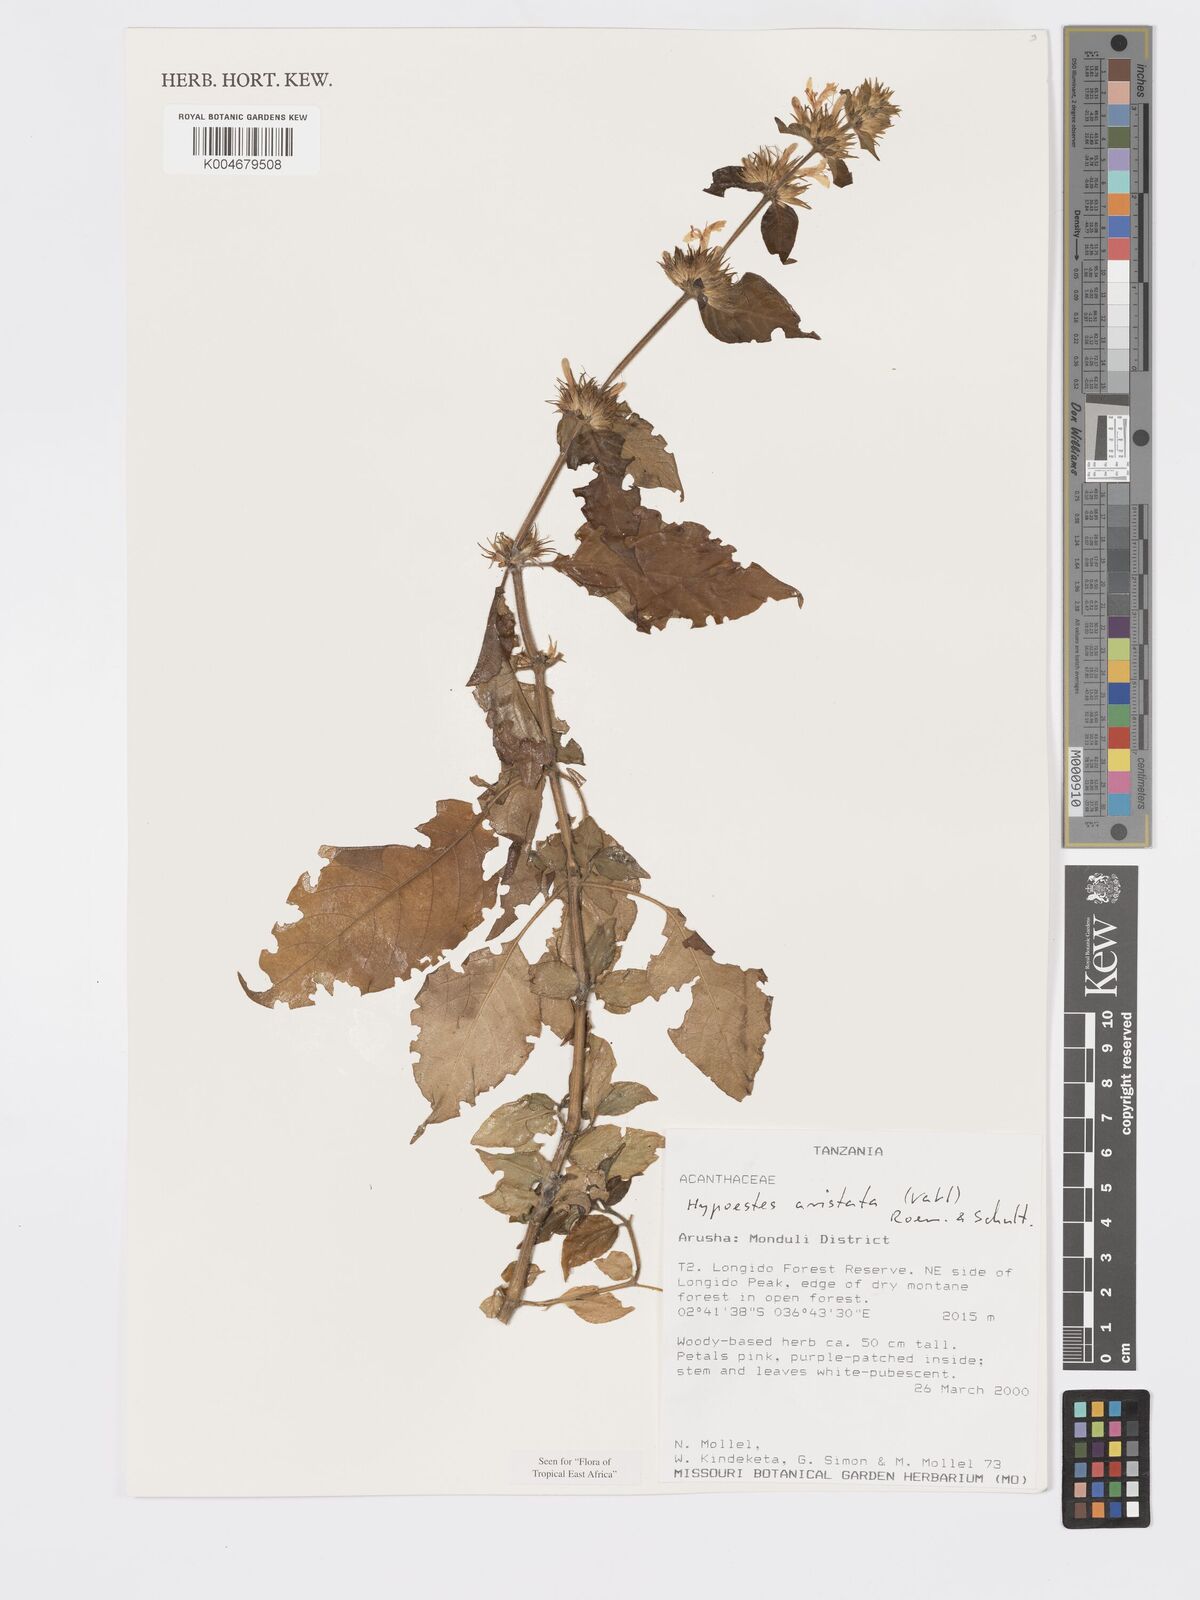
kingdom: Plantae
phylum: Tracheophyta
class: Magnoliopsida
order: Lamiales
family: Acanthaceae
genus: Hypoestes
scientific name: Hypoestes aristata
